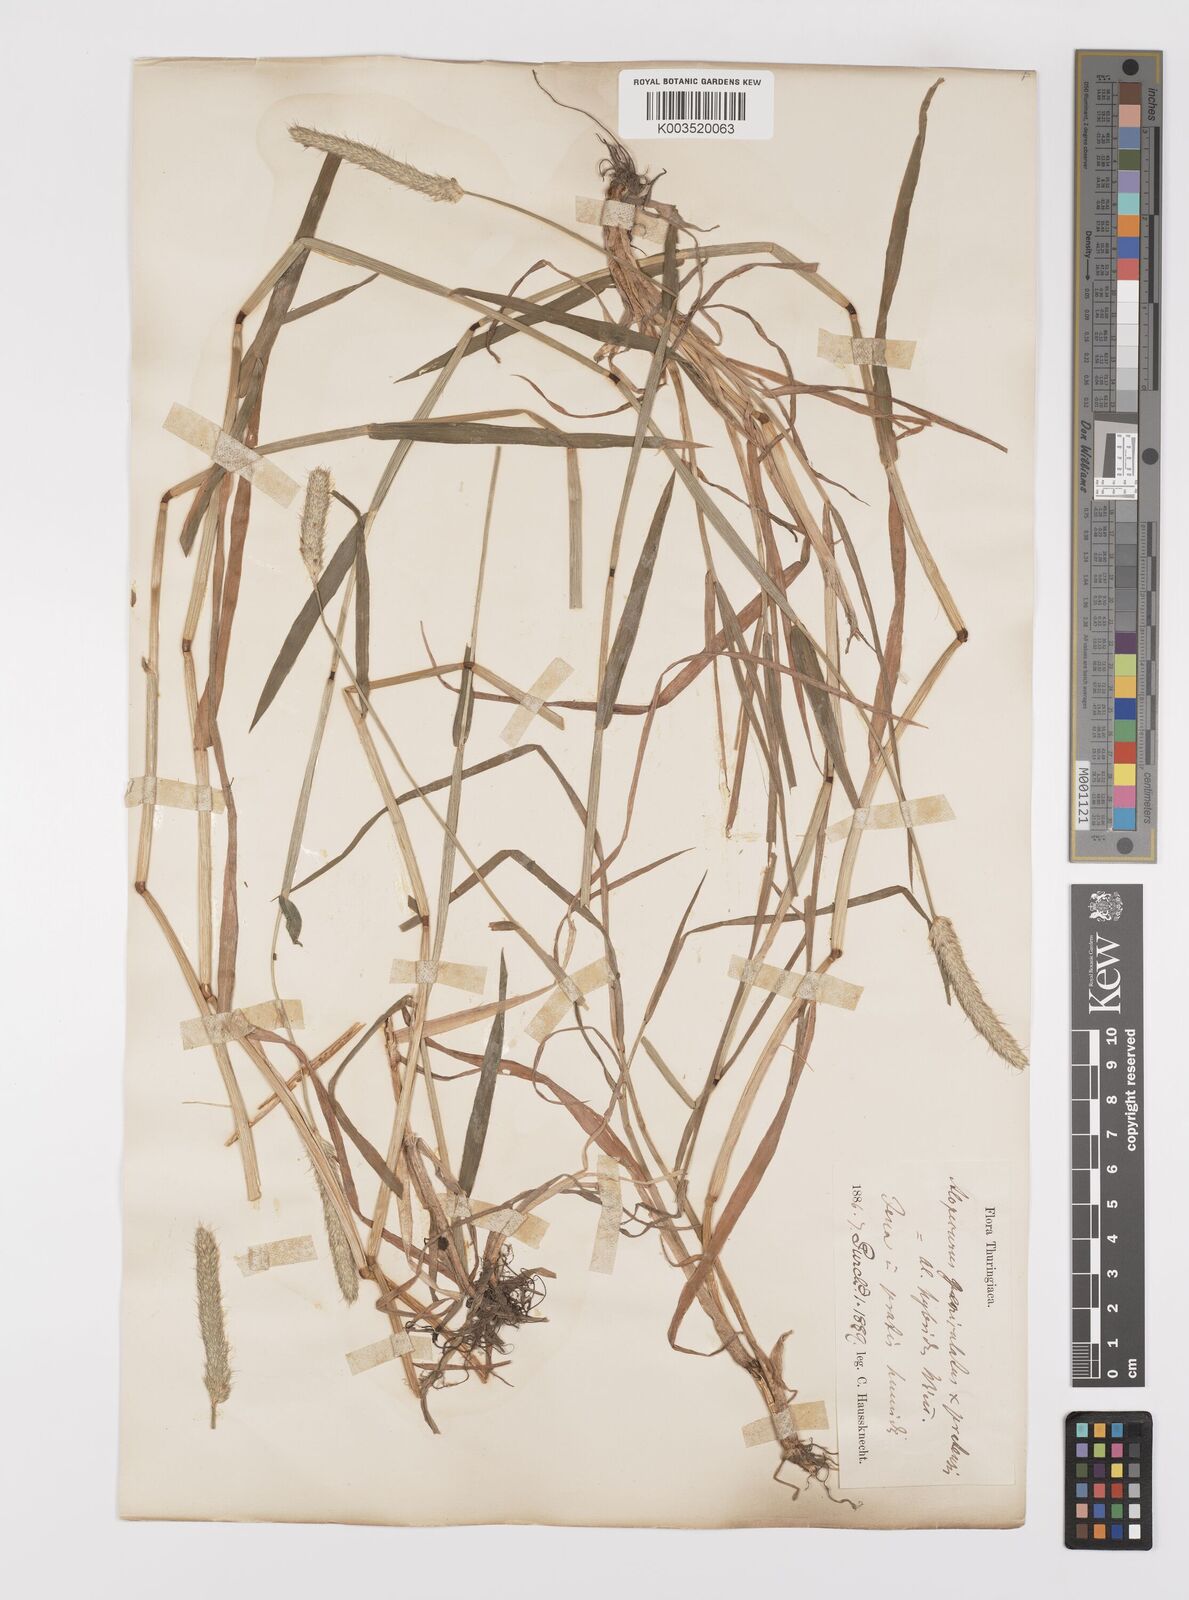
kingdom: Plantae
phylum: Tracheophyta
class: Liliopsida
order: Poales
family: Poaceae
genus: Alopecurus
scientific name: Alopecurus brachystylus
